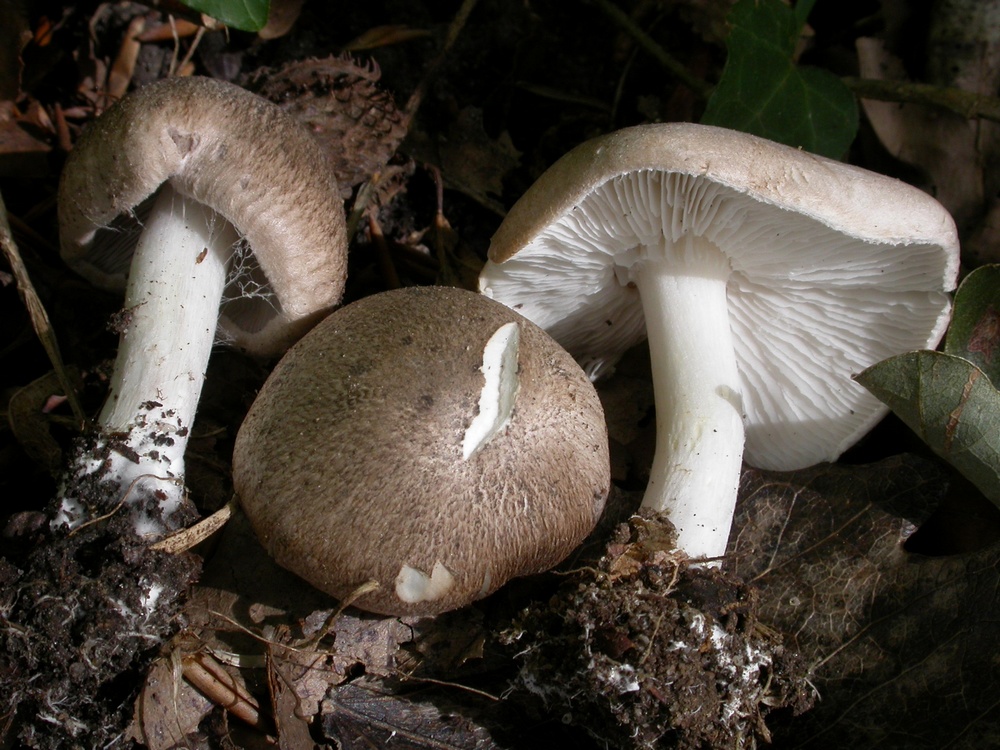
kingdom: Fungi
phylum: Basidiomycota
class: Agaricomycetes
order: Agaricales
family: Tricholomataceae
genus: Tricholoma
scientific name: Tricholoma scalpturatum
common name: gulplettet ridderhat
